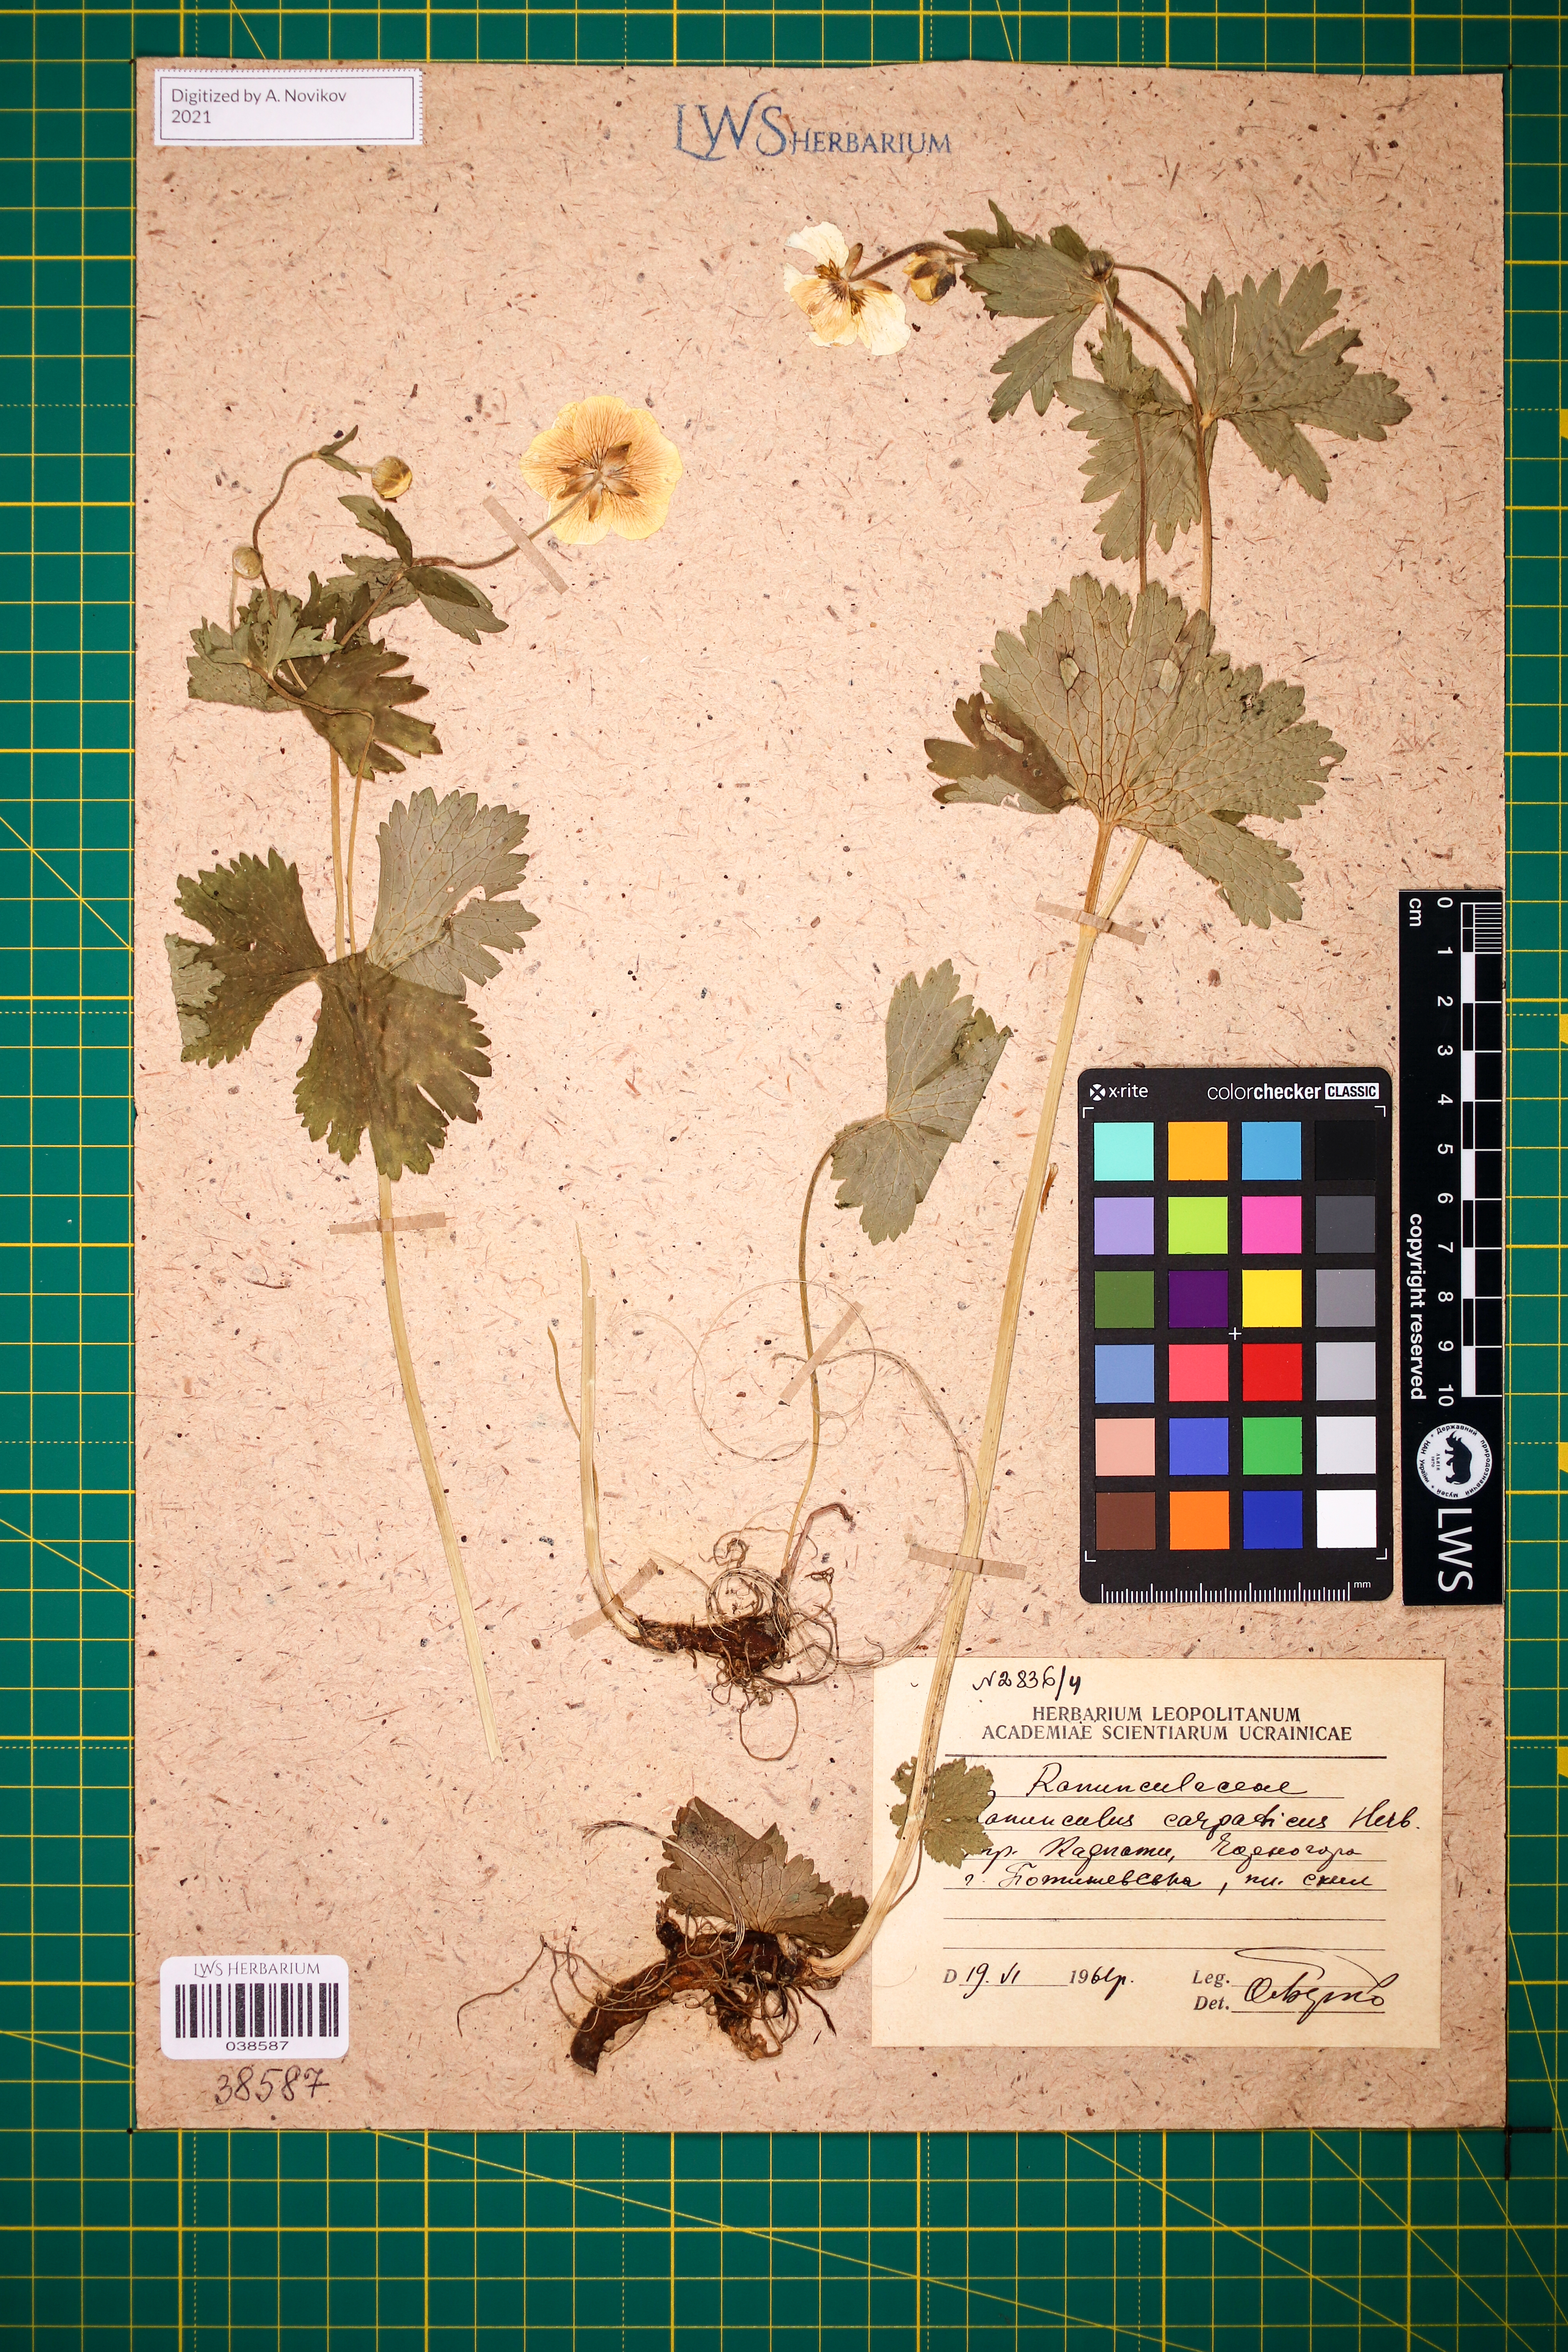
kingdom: Plantae
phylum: Tracheophyta
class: Magnoliopsida
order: Ranunculales
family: Ranunculaceae
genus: Ranunculus
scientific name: Ranunculus carpaticus
